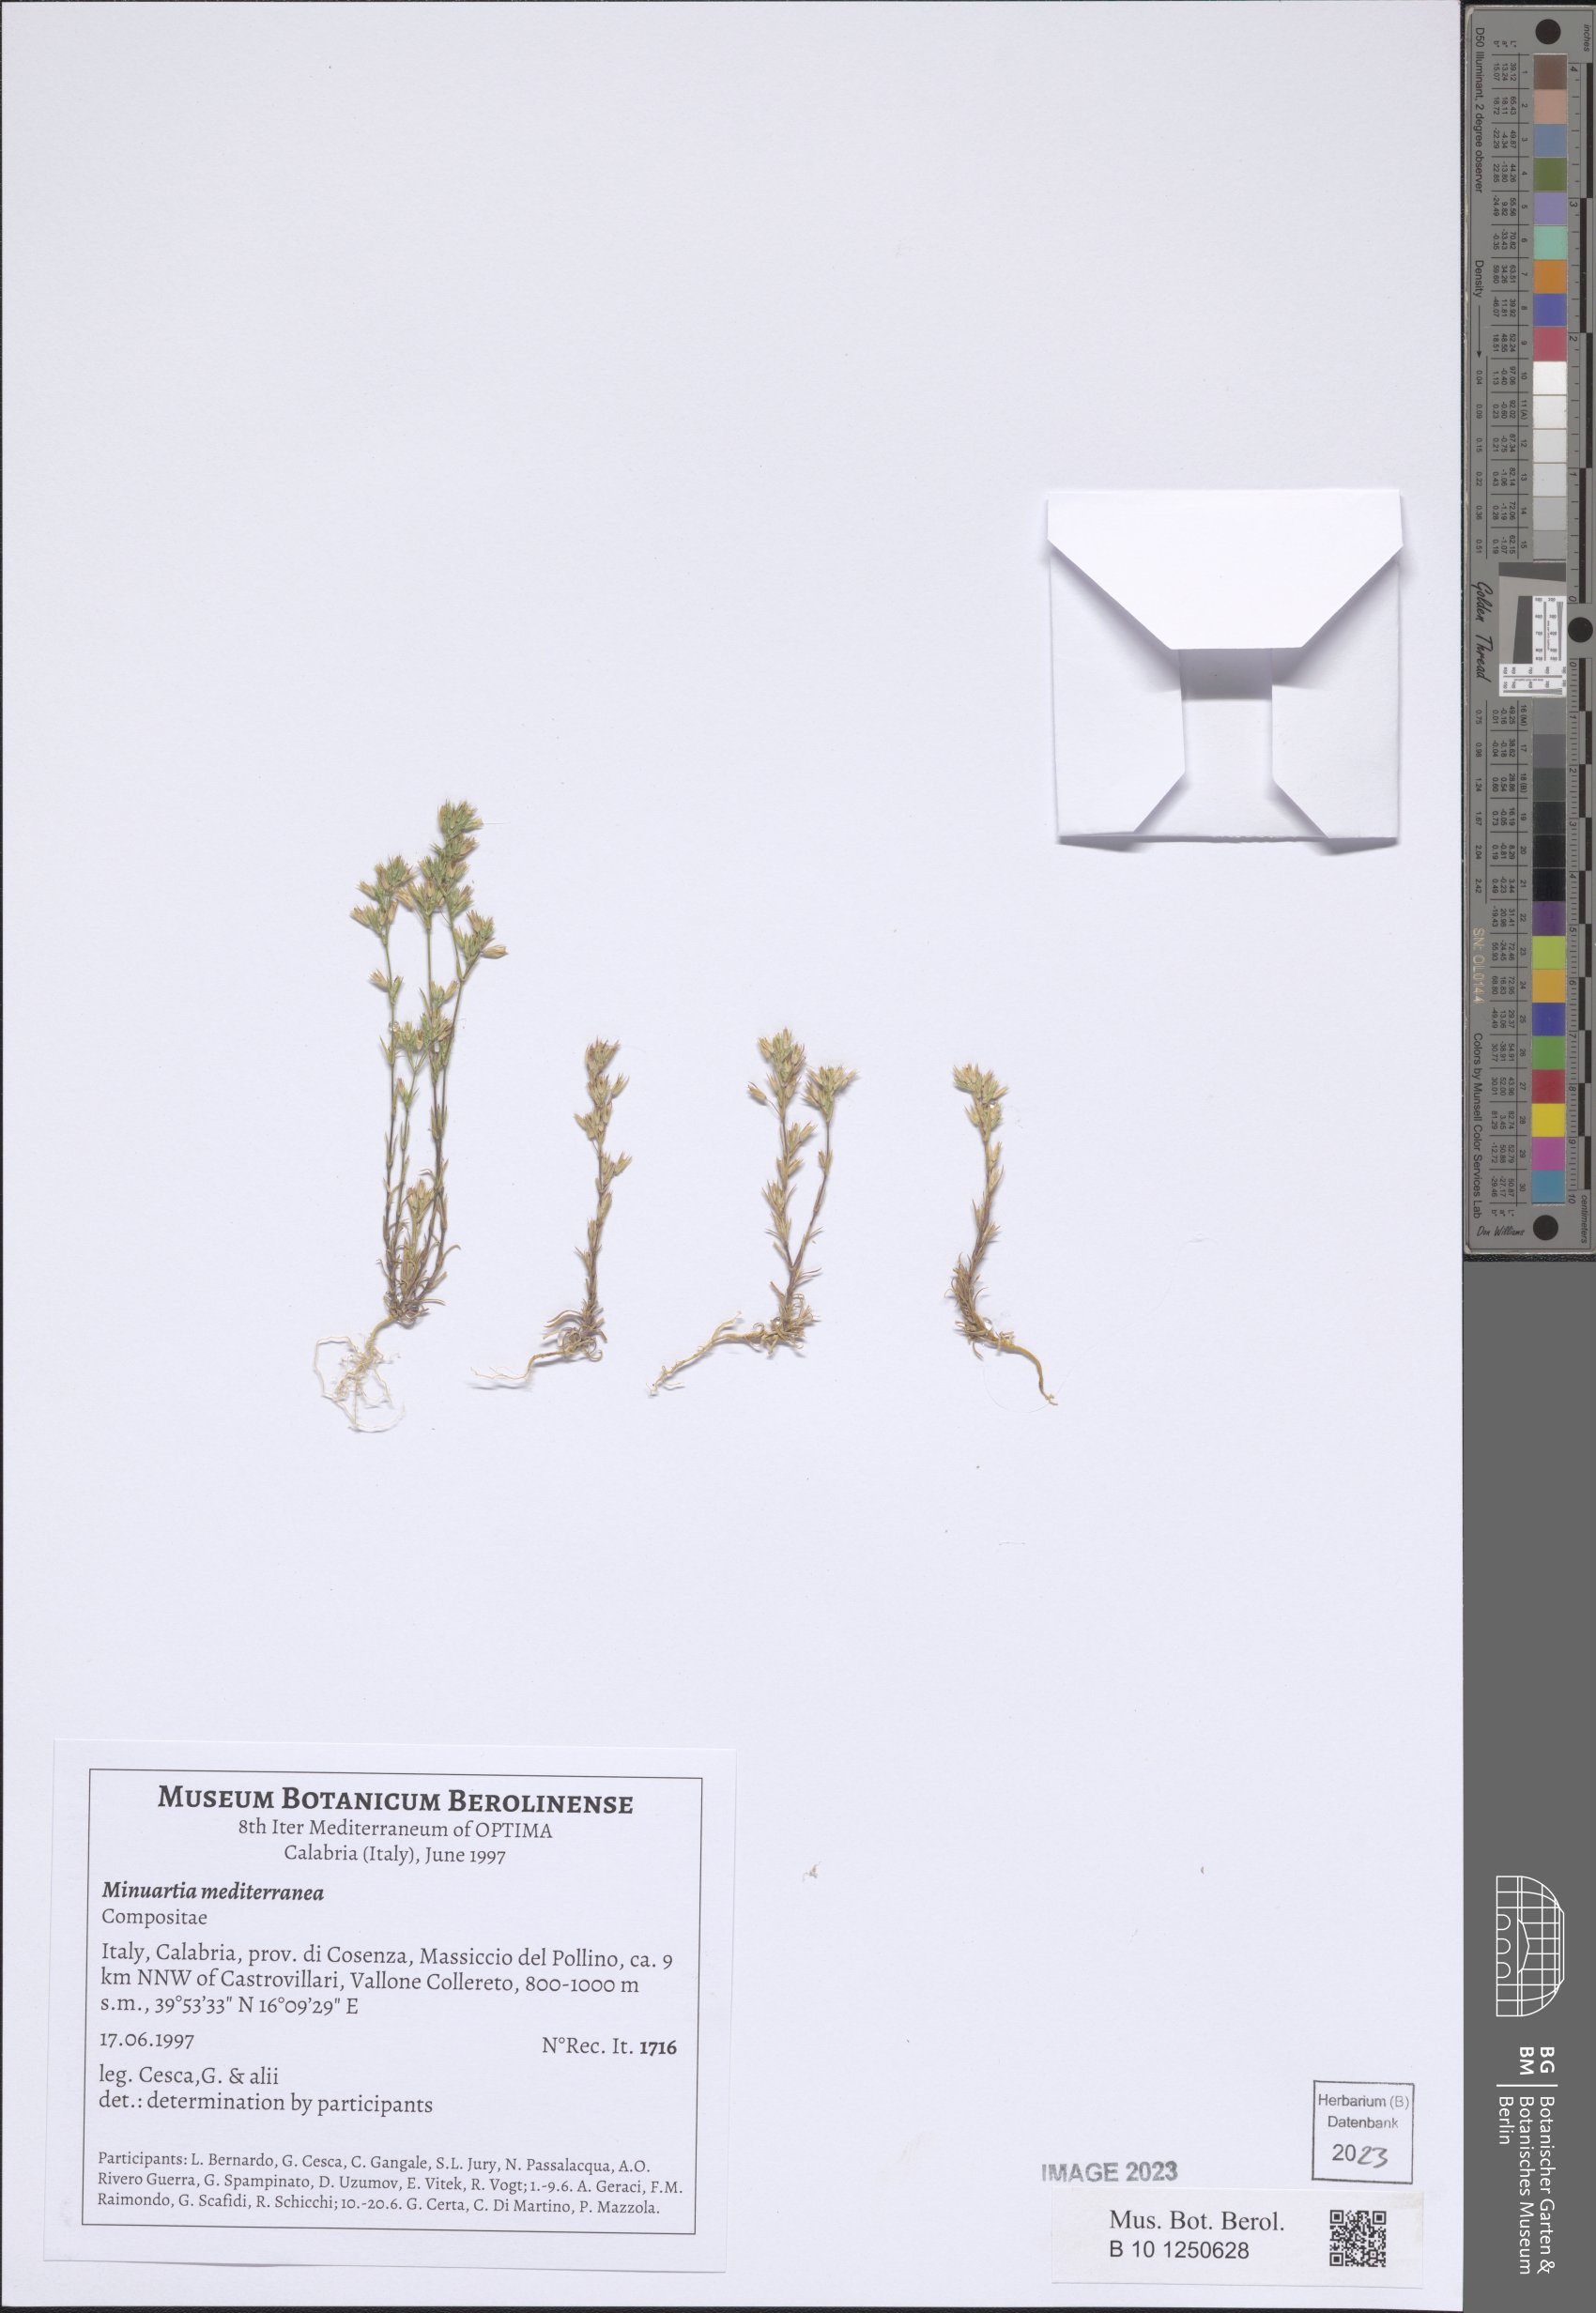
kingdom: Plantae
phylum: Tracheophyta
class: Magnoliopsida
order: Caryophyllales
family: Caryophyllaceae
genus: Sabulina
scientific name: Sabulina mediterranea
